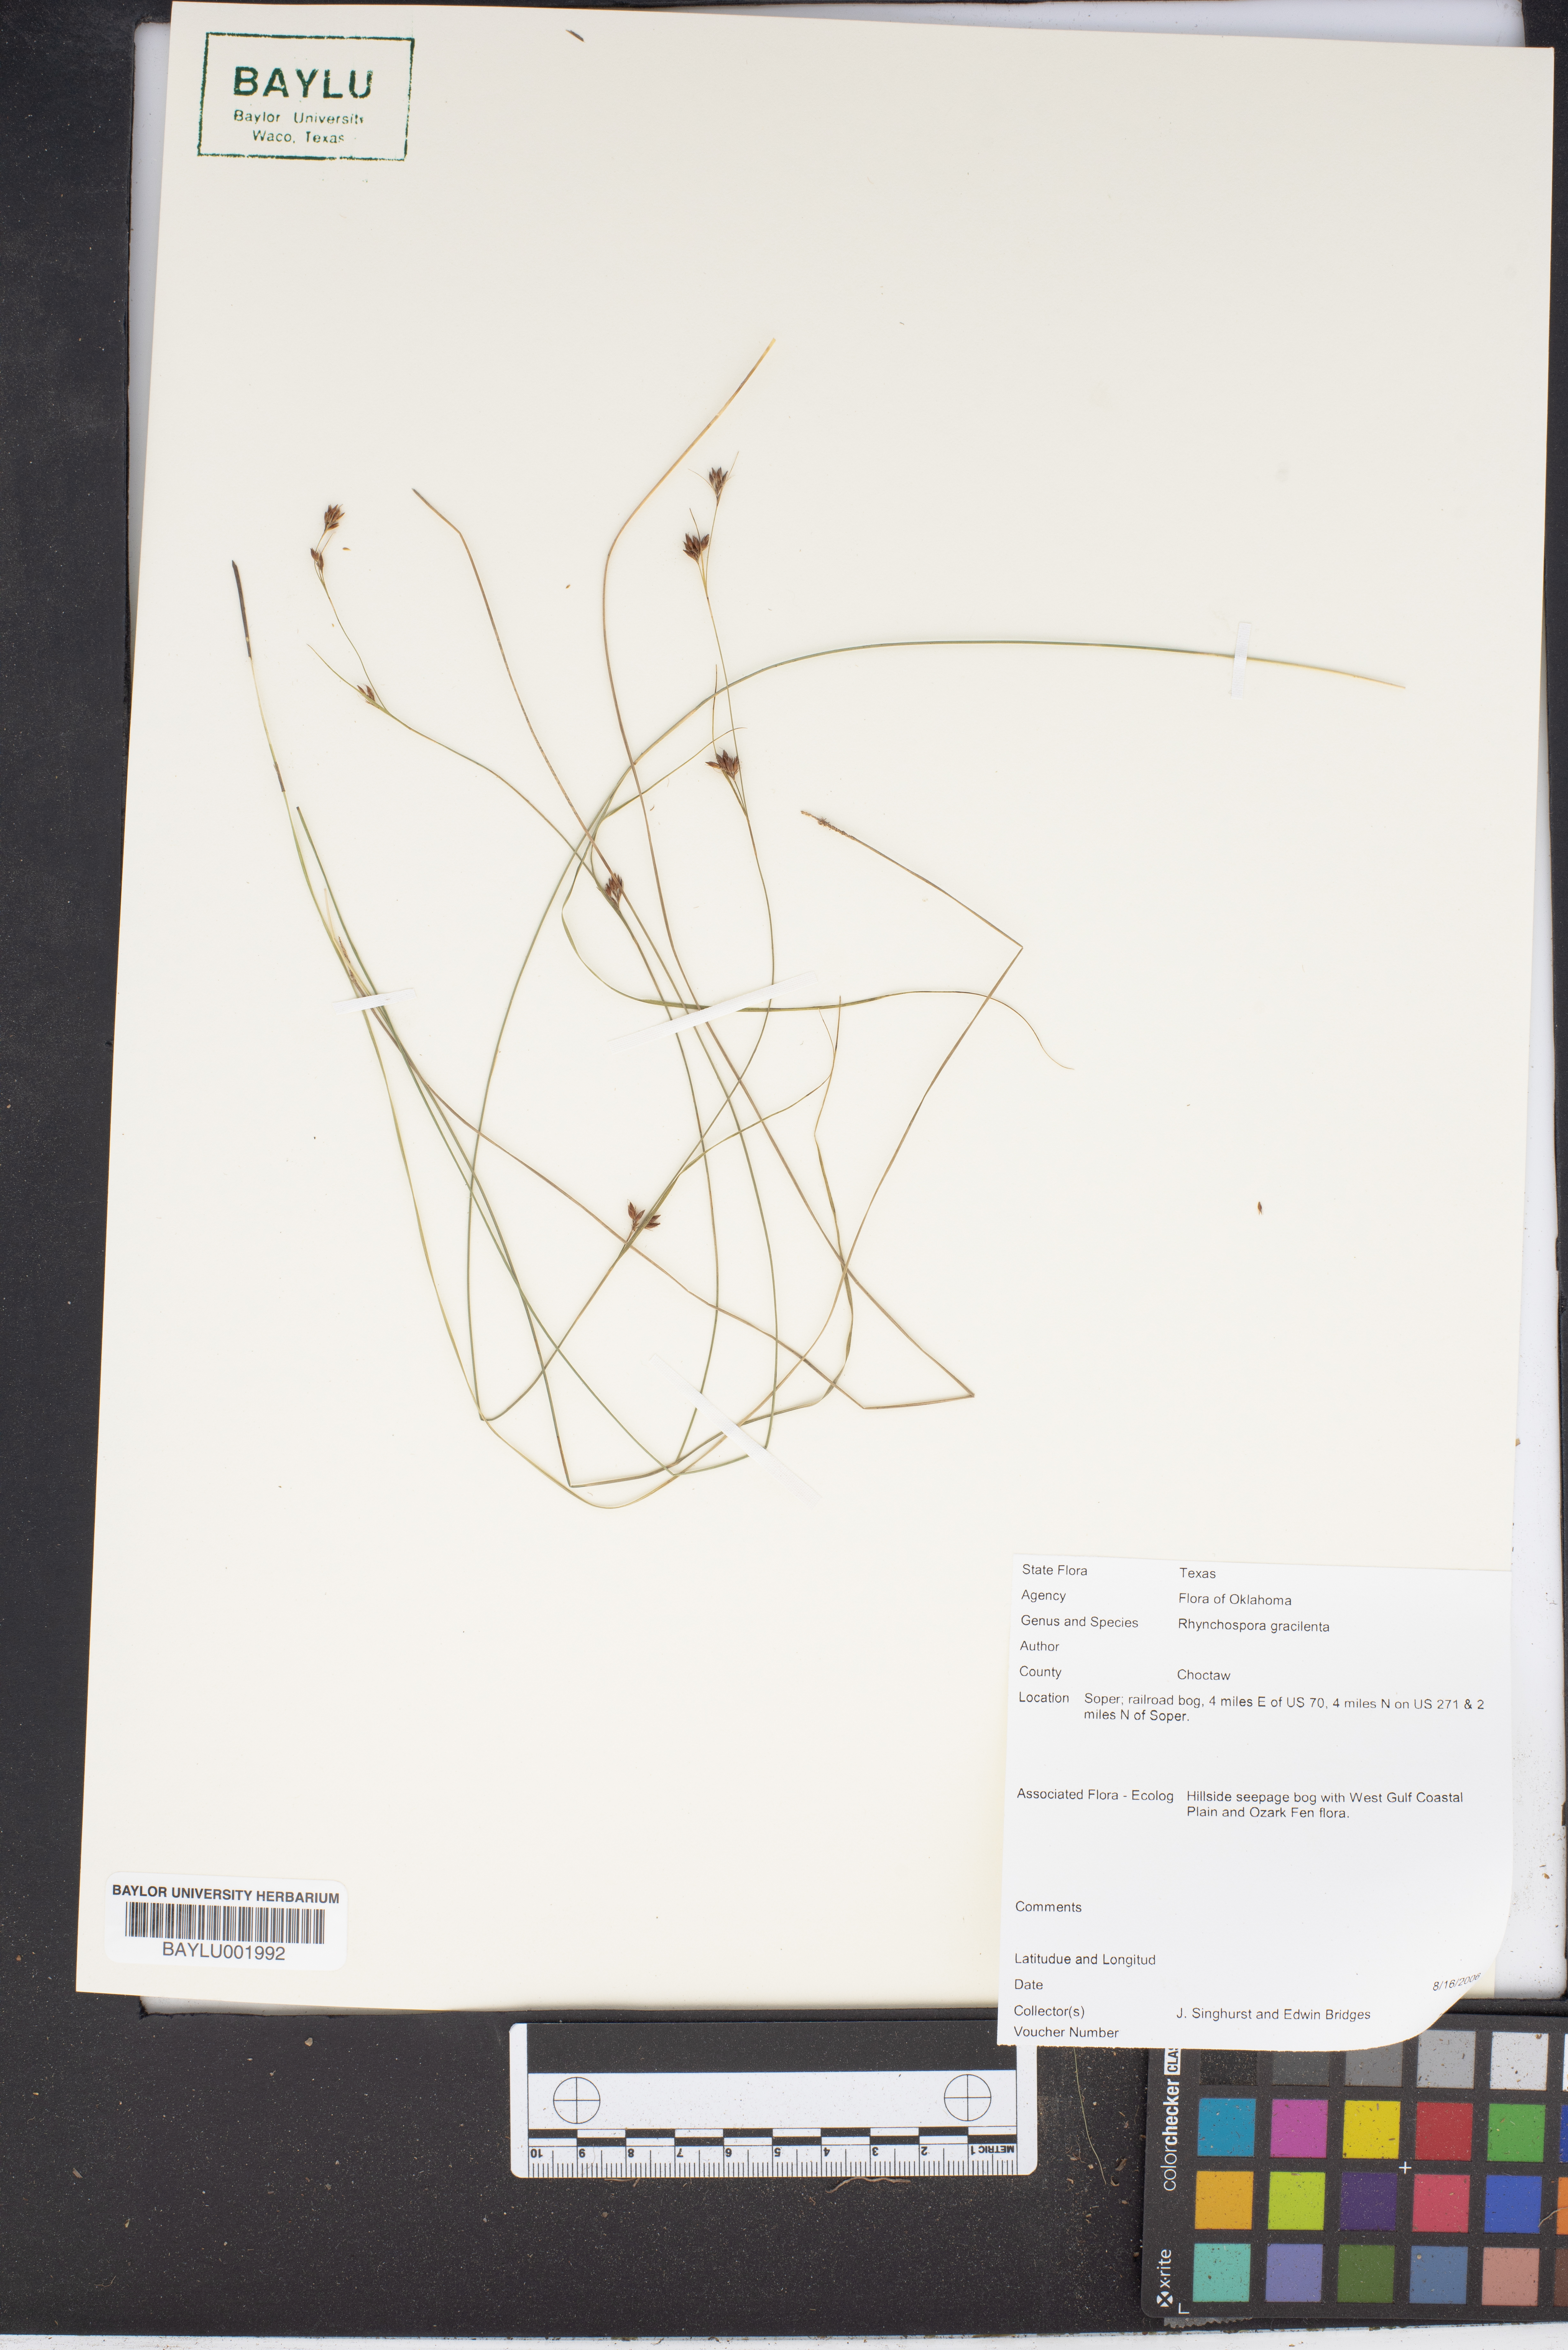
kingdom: Plantae
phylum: Tracheophyta
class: Liliopsida
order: Poales
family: Cyperaceae
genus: Rhynchospora
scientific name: Rhynchospora gracilenta
